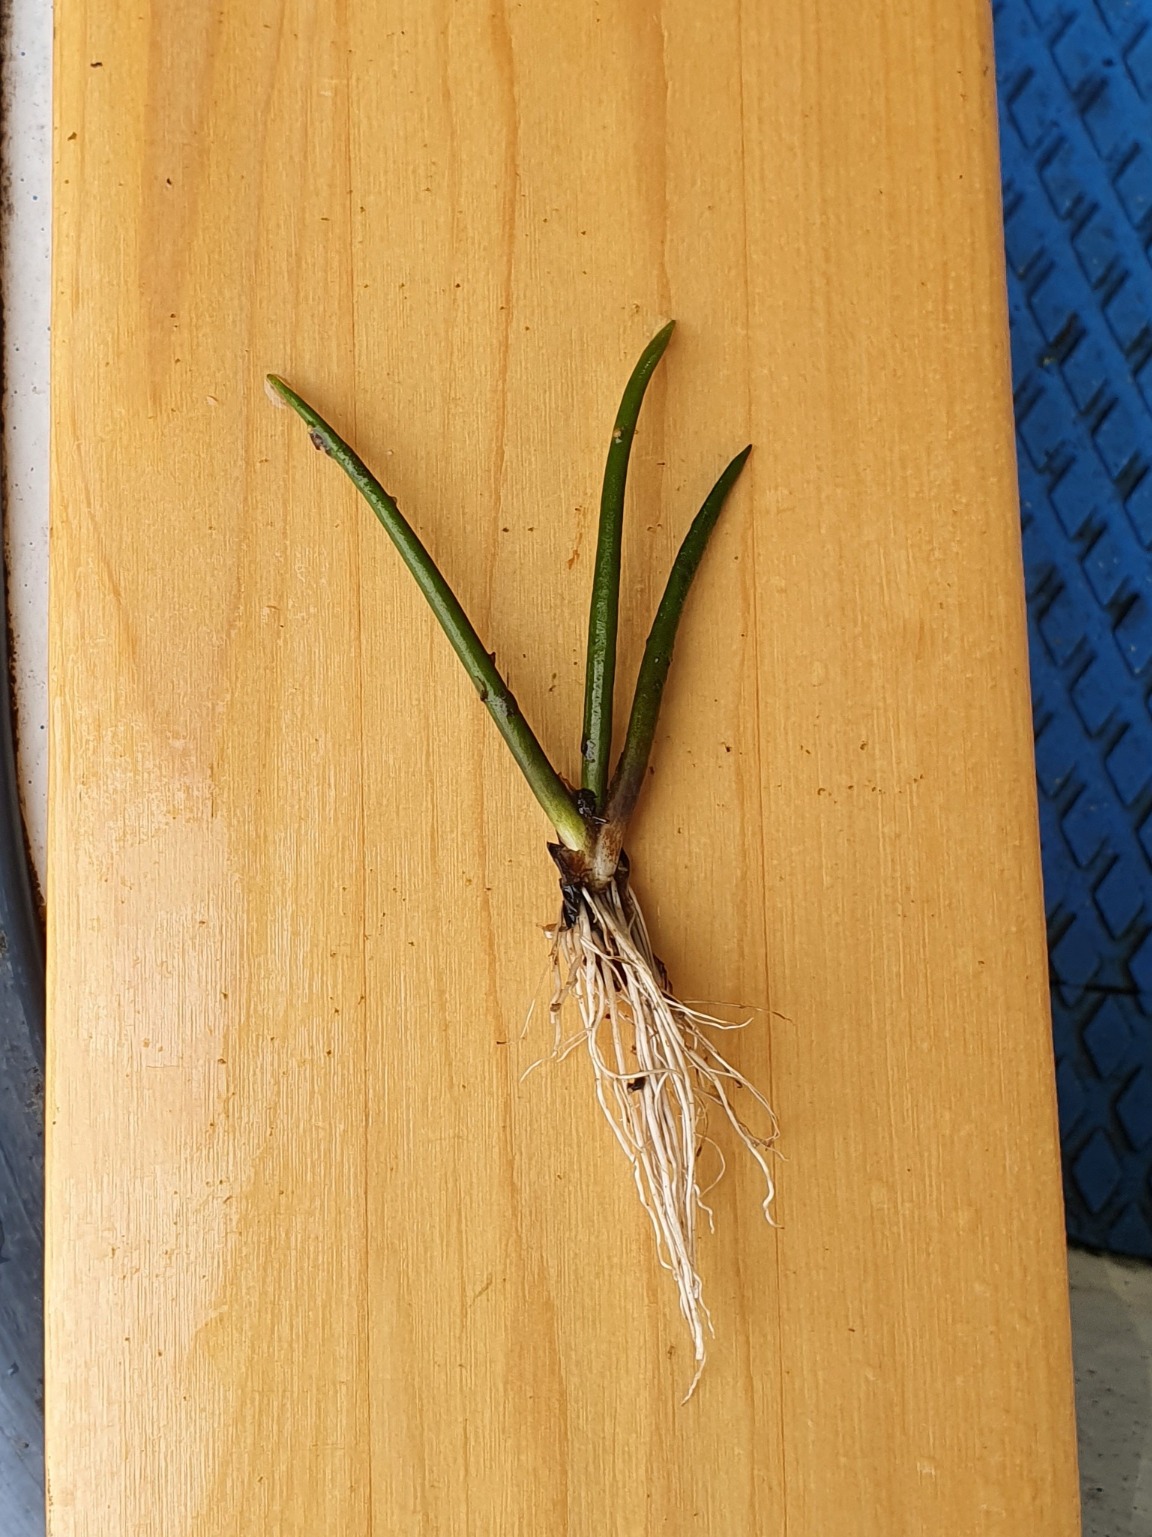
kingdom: Plantae
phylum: Tracheophyta
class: Magnoliopsida
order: Lamiales
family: Plantaginaceae
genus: Littorella
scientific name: Littorella uniflora
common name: Strandbo
